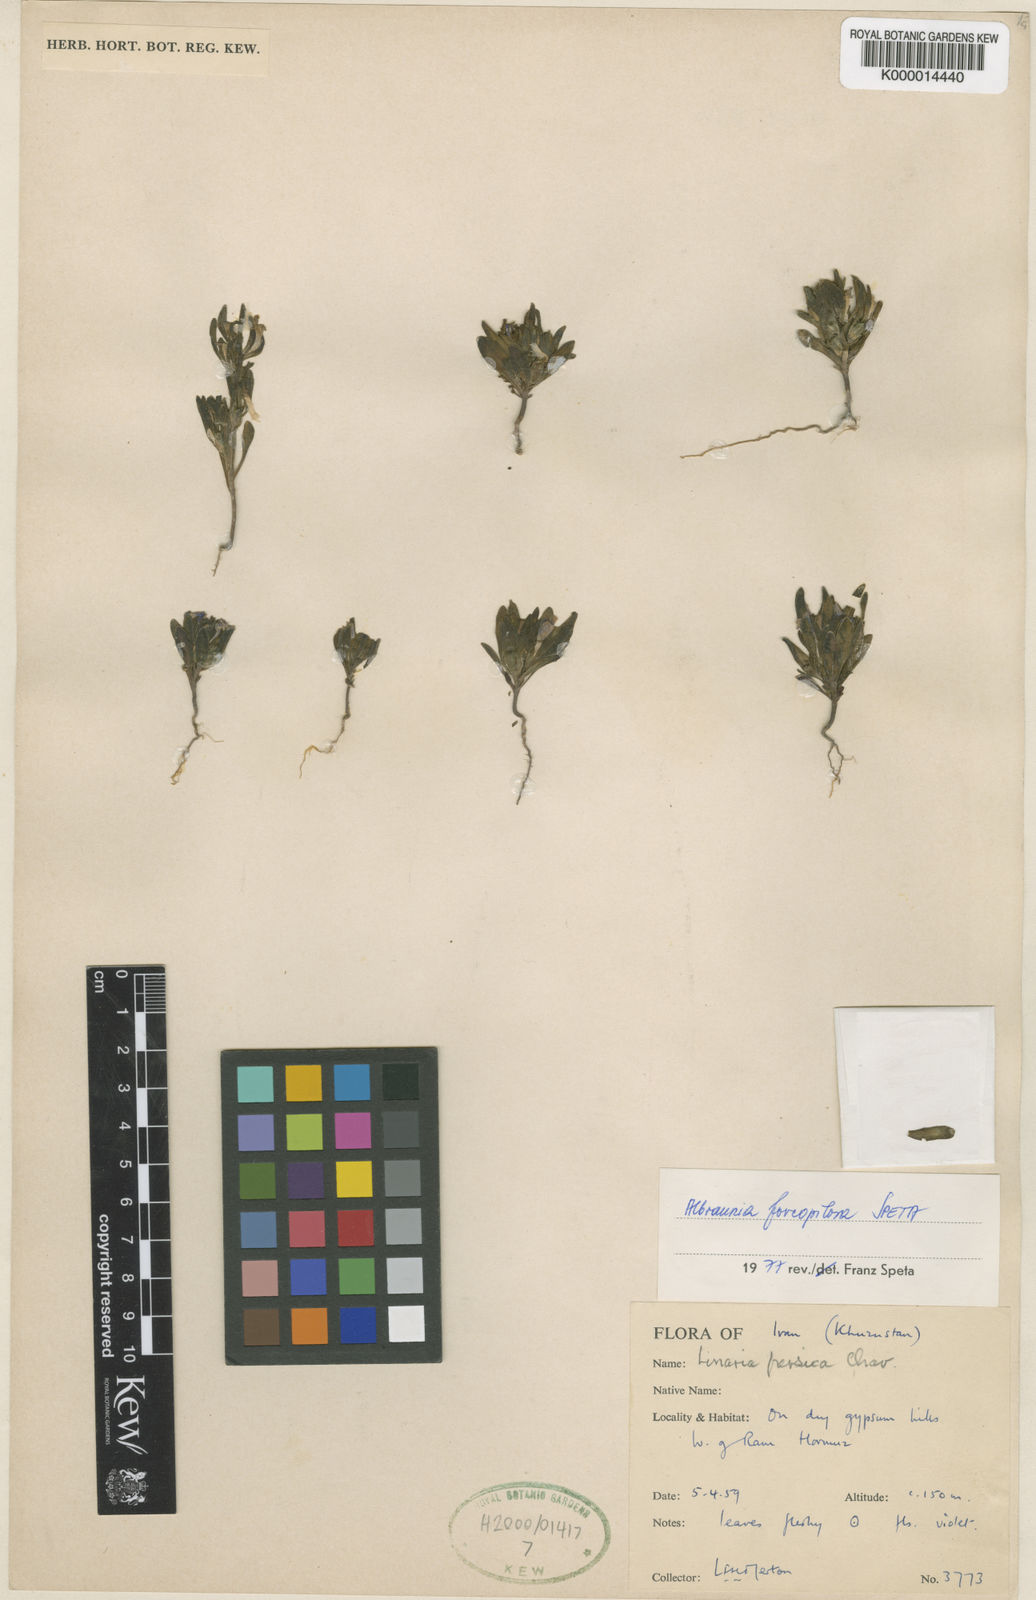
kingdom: Plantae
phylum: Tracheophyta
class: Magnoliopsida
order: Lamiales
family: Plantaginaceae
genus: Albraunia
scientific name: Albraunia foveopilosa
